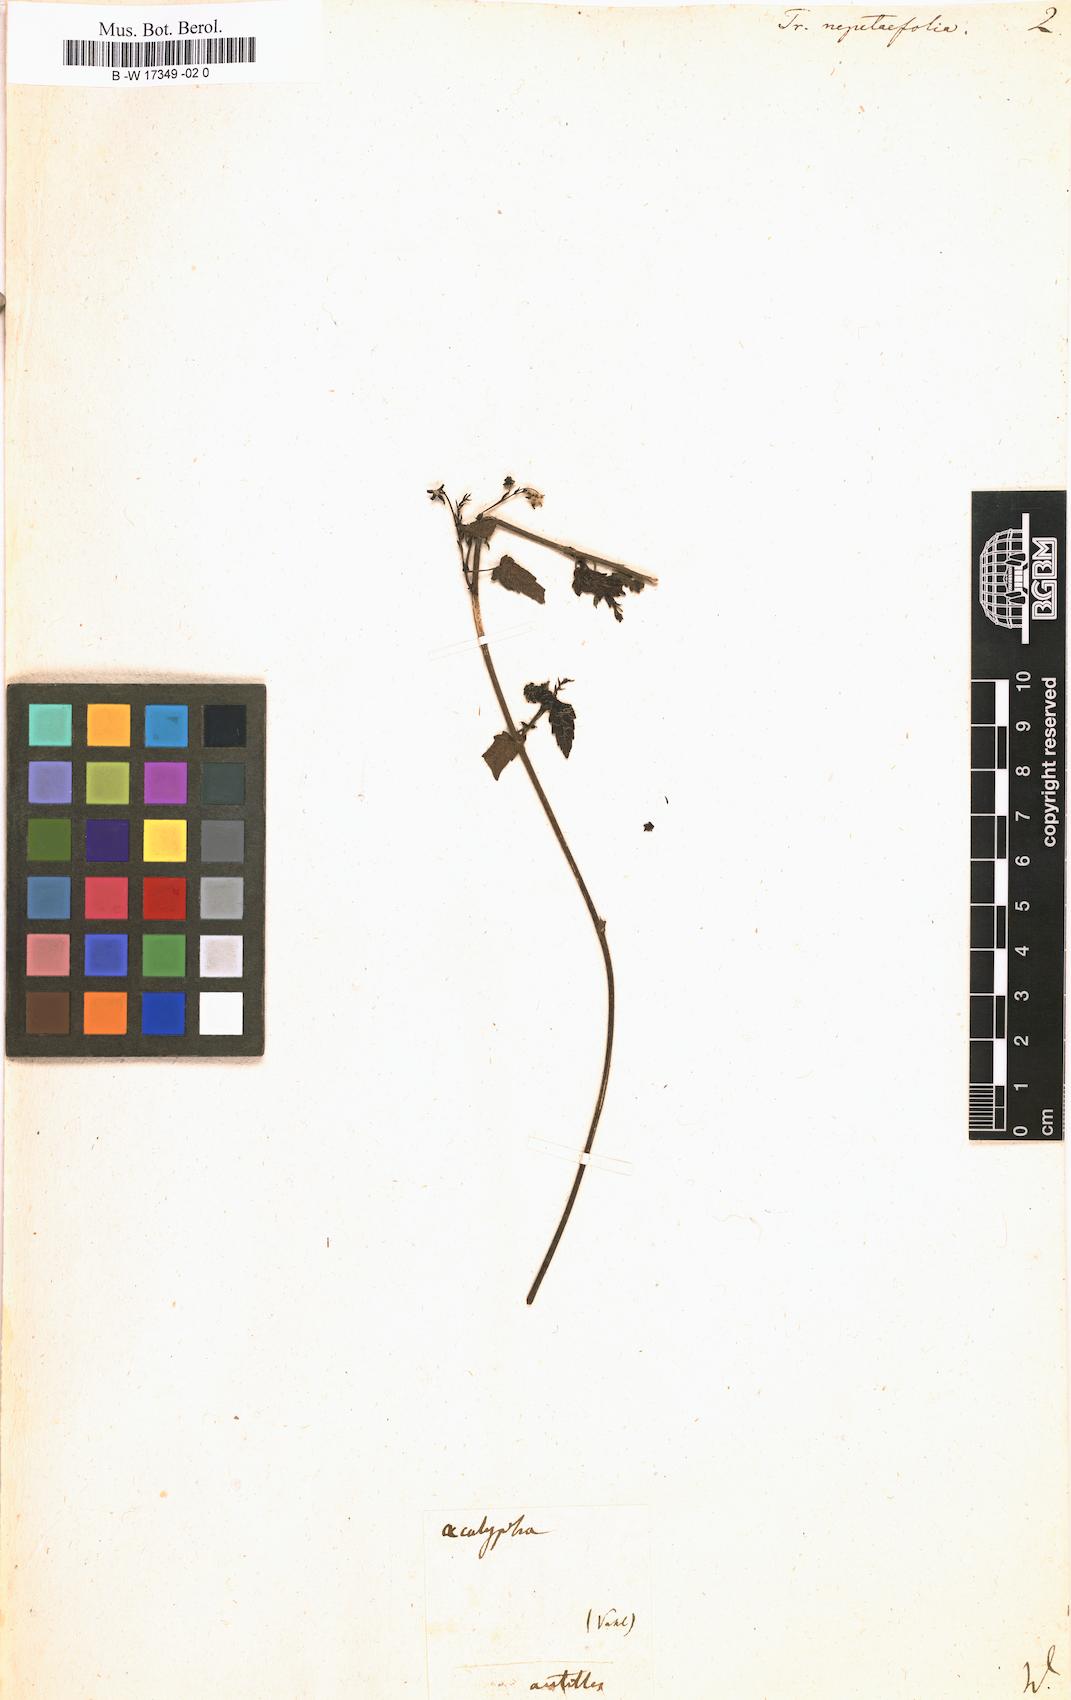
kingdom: Plantae
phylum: Tracheophyta
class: Magnoliopsida
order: Malpighiales
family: Euphorbiaceae
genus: Tragia
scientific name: Tragia nepetifolia
